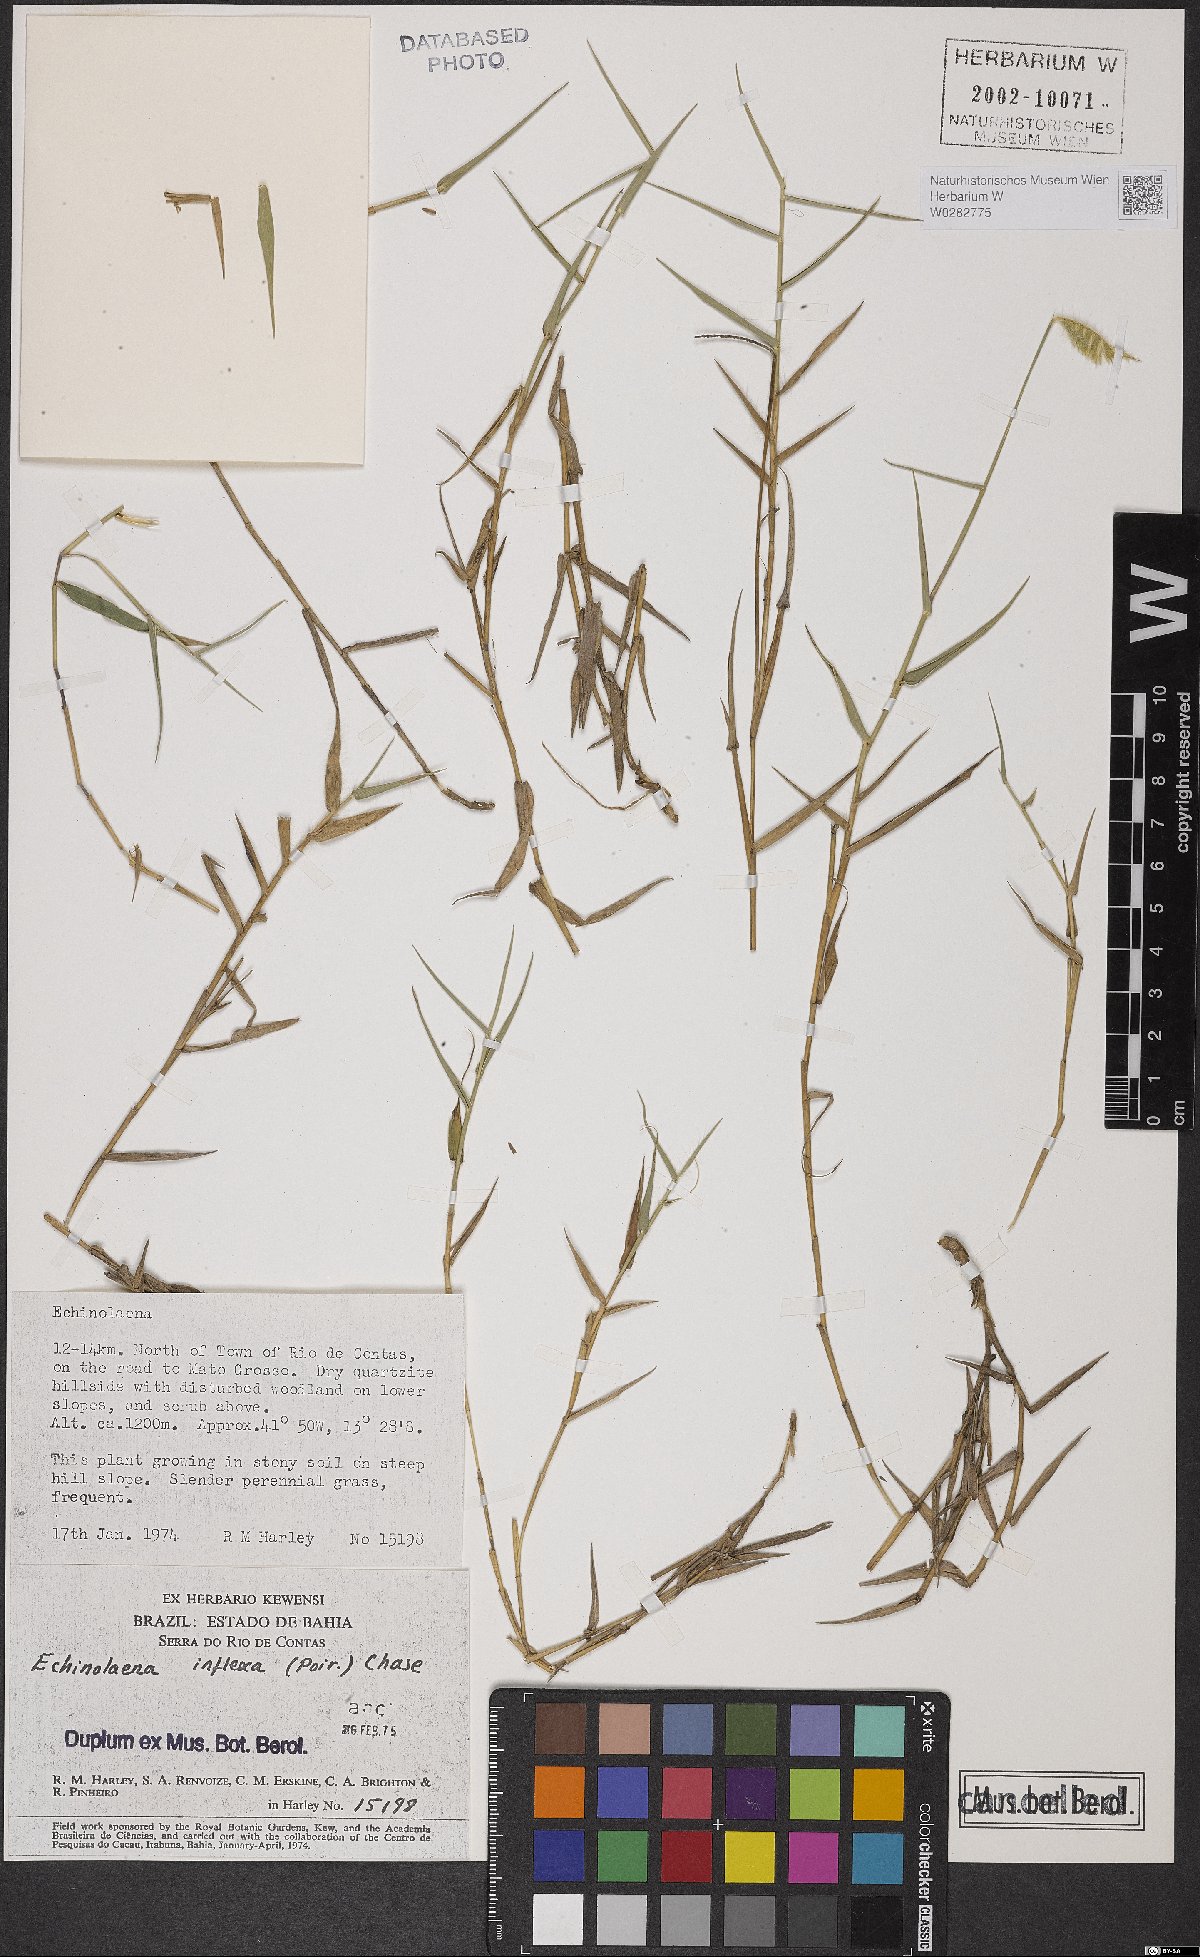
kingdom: Plantae
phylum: Tracheophyta
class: Liliopsida
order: Poales
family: Poaceae
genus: Echinolaena
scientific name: Echinolaena inflexa
